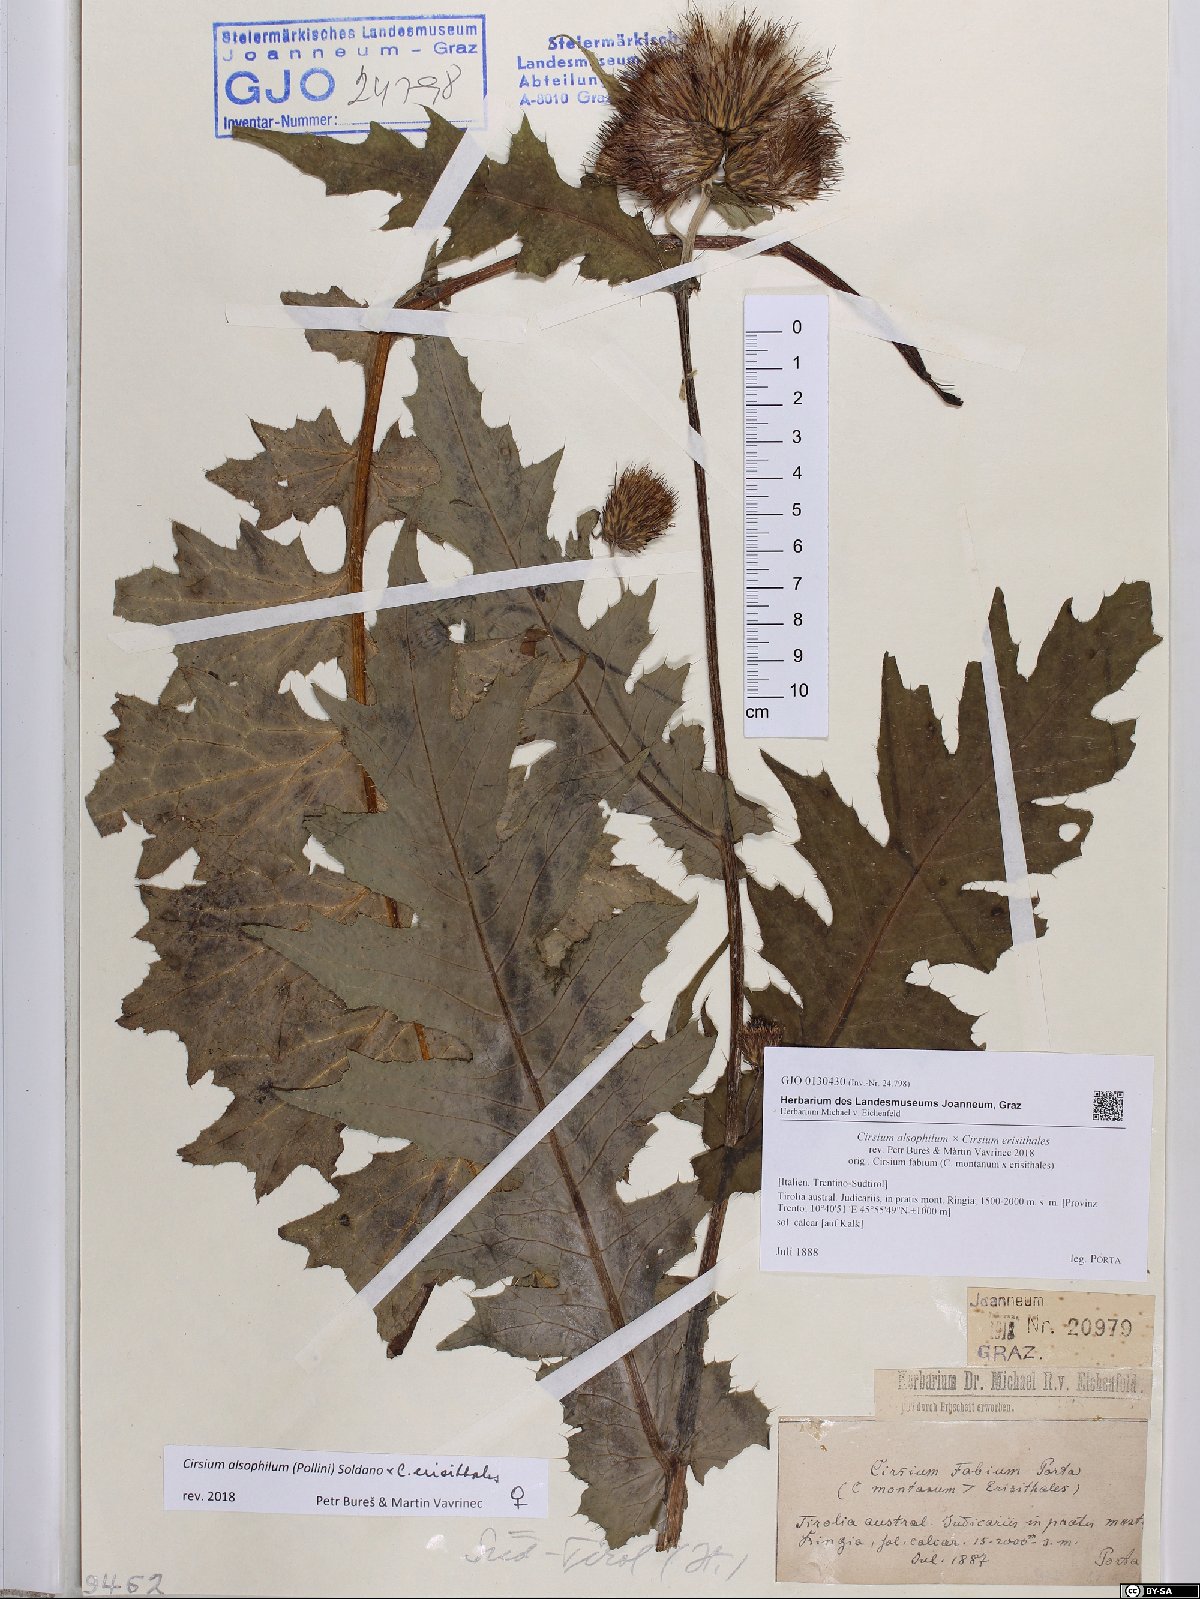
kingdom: Plantae
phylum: Tracheophyta
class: Magnoliopsida
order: Asterales
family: Asteraceae
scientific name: Asteraceae
